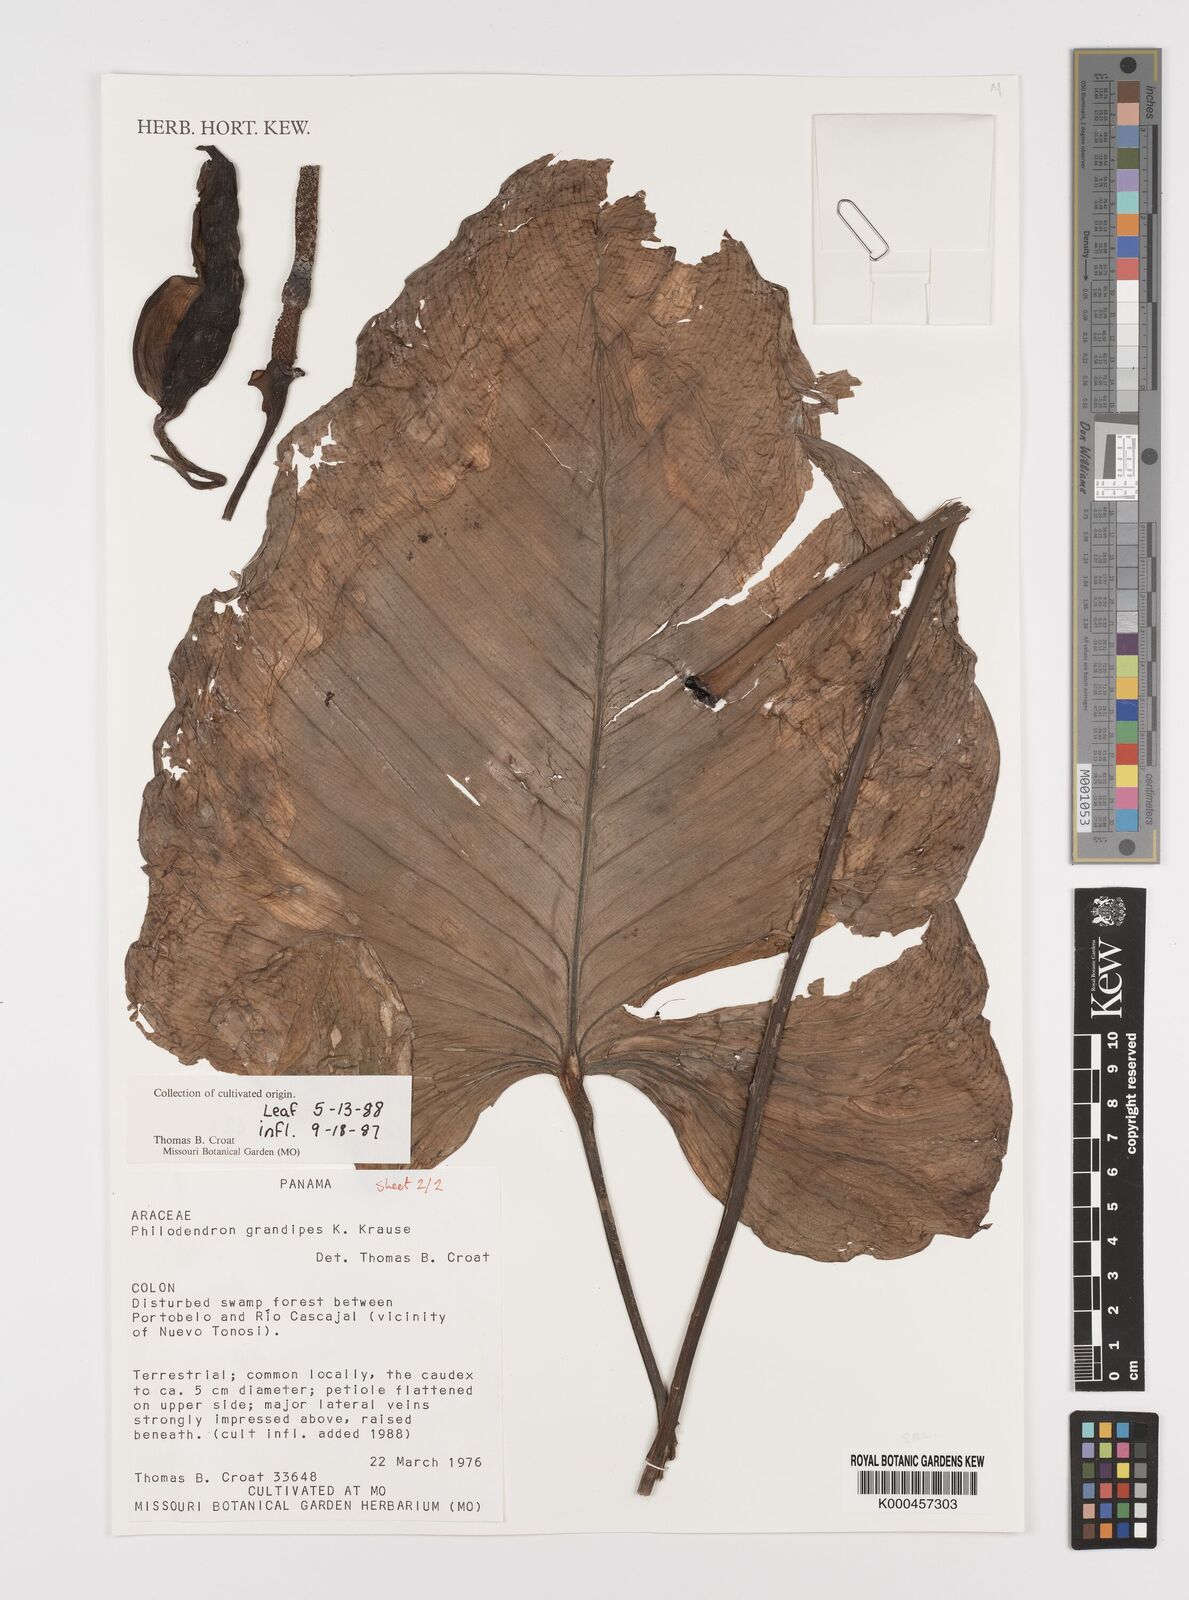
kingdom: Plantae
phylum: Tracheophyta
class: Liliopsida
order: Alismatales
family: Araceae
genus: Philodendron
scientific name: Philodendron grandipes
